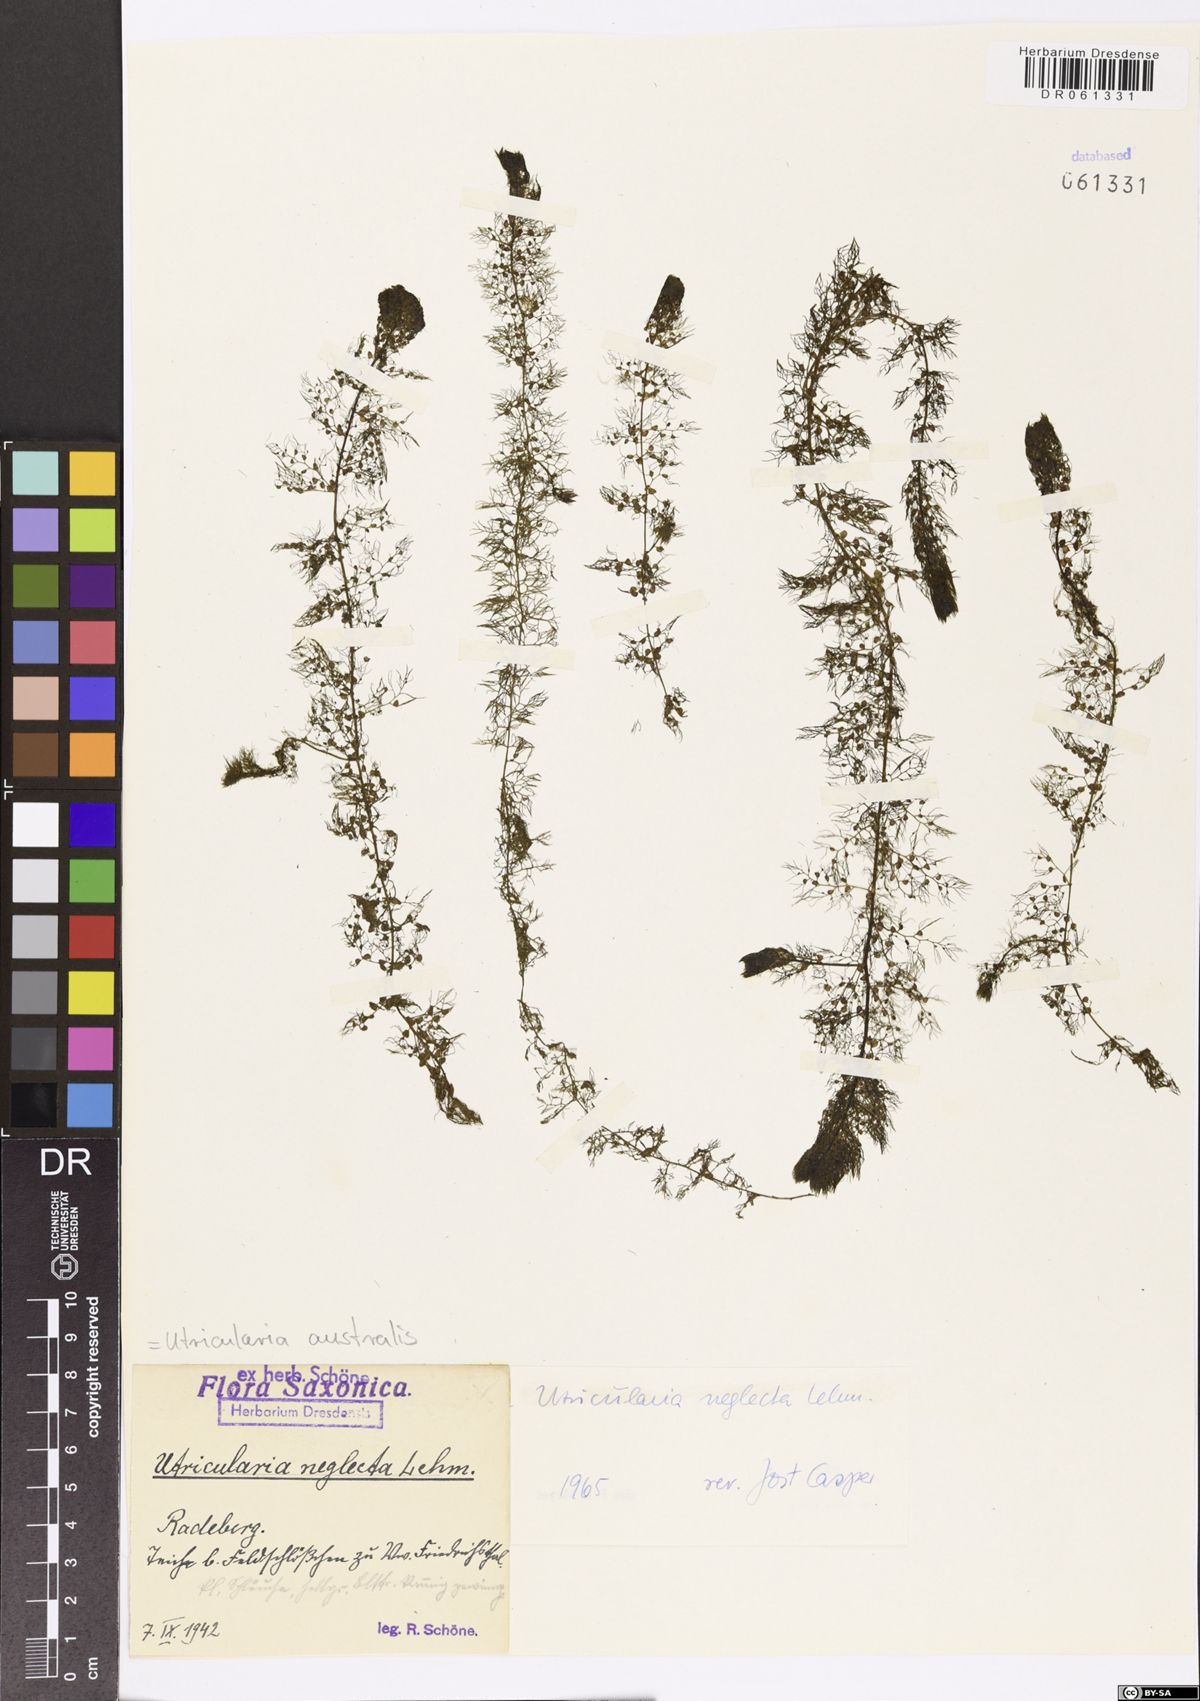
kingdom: Plantae
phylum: Tracheophyta
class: Magnoliopsida
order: Lamiales
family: Lentibulariaceae
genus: Utricularia
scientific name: Utricularia australis
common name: Bladderwort
